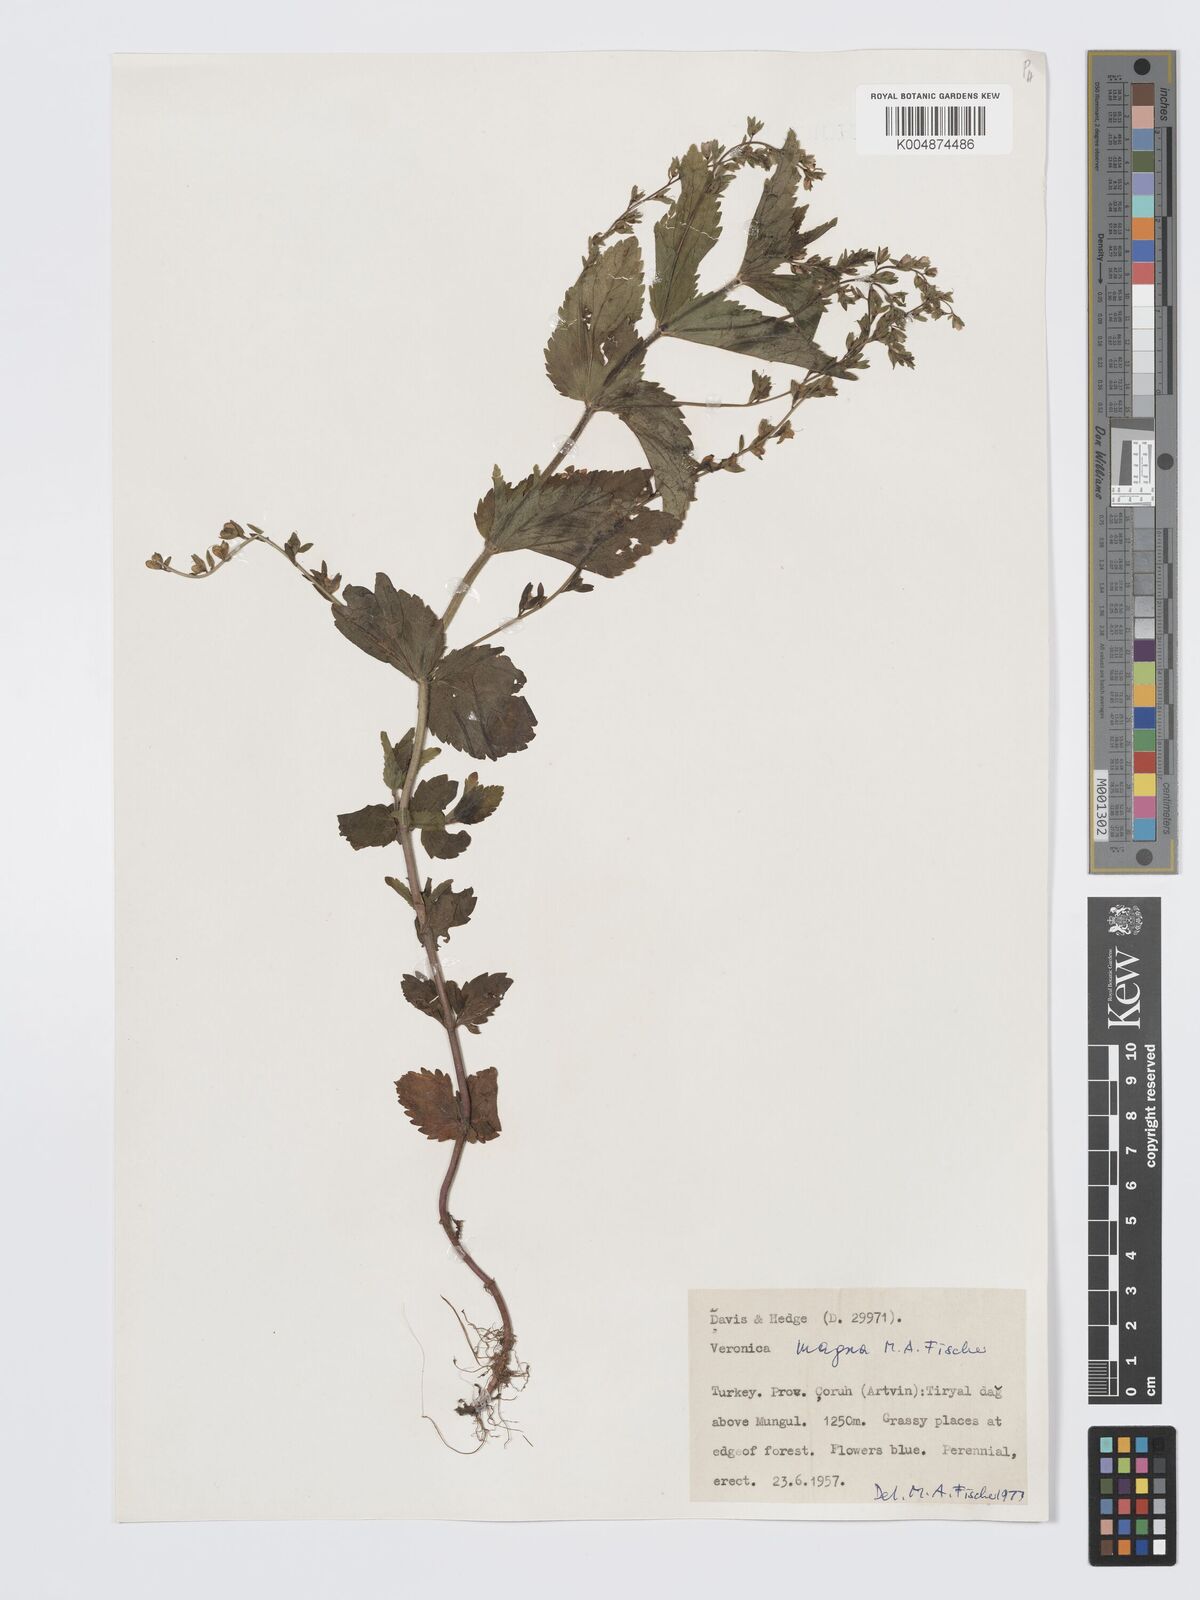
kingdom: Plantae
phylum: Tracheophyta
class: Magnoliopsida
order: Lamiales
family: Plantaginaceae
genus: Veronica
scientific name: Veronica magna
